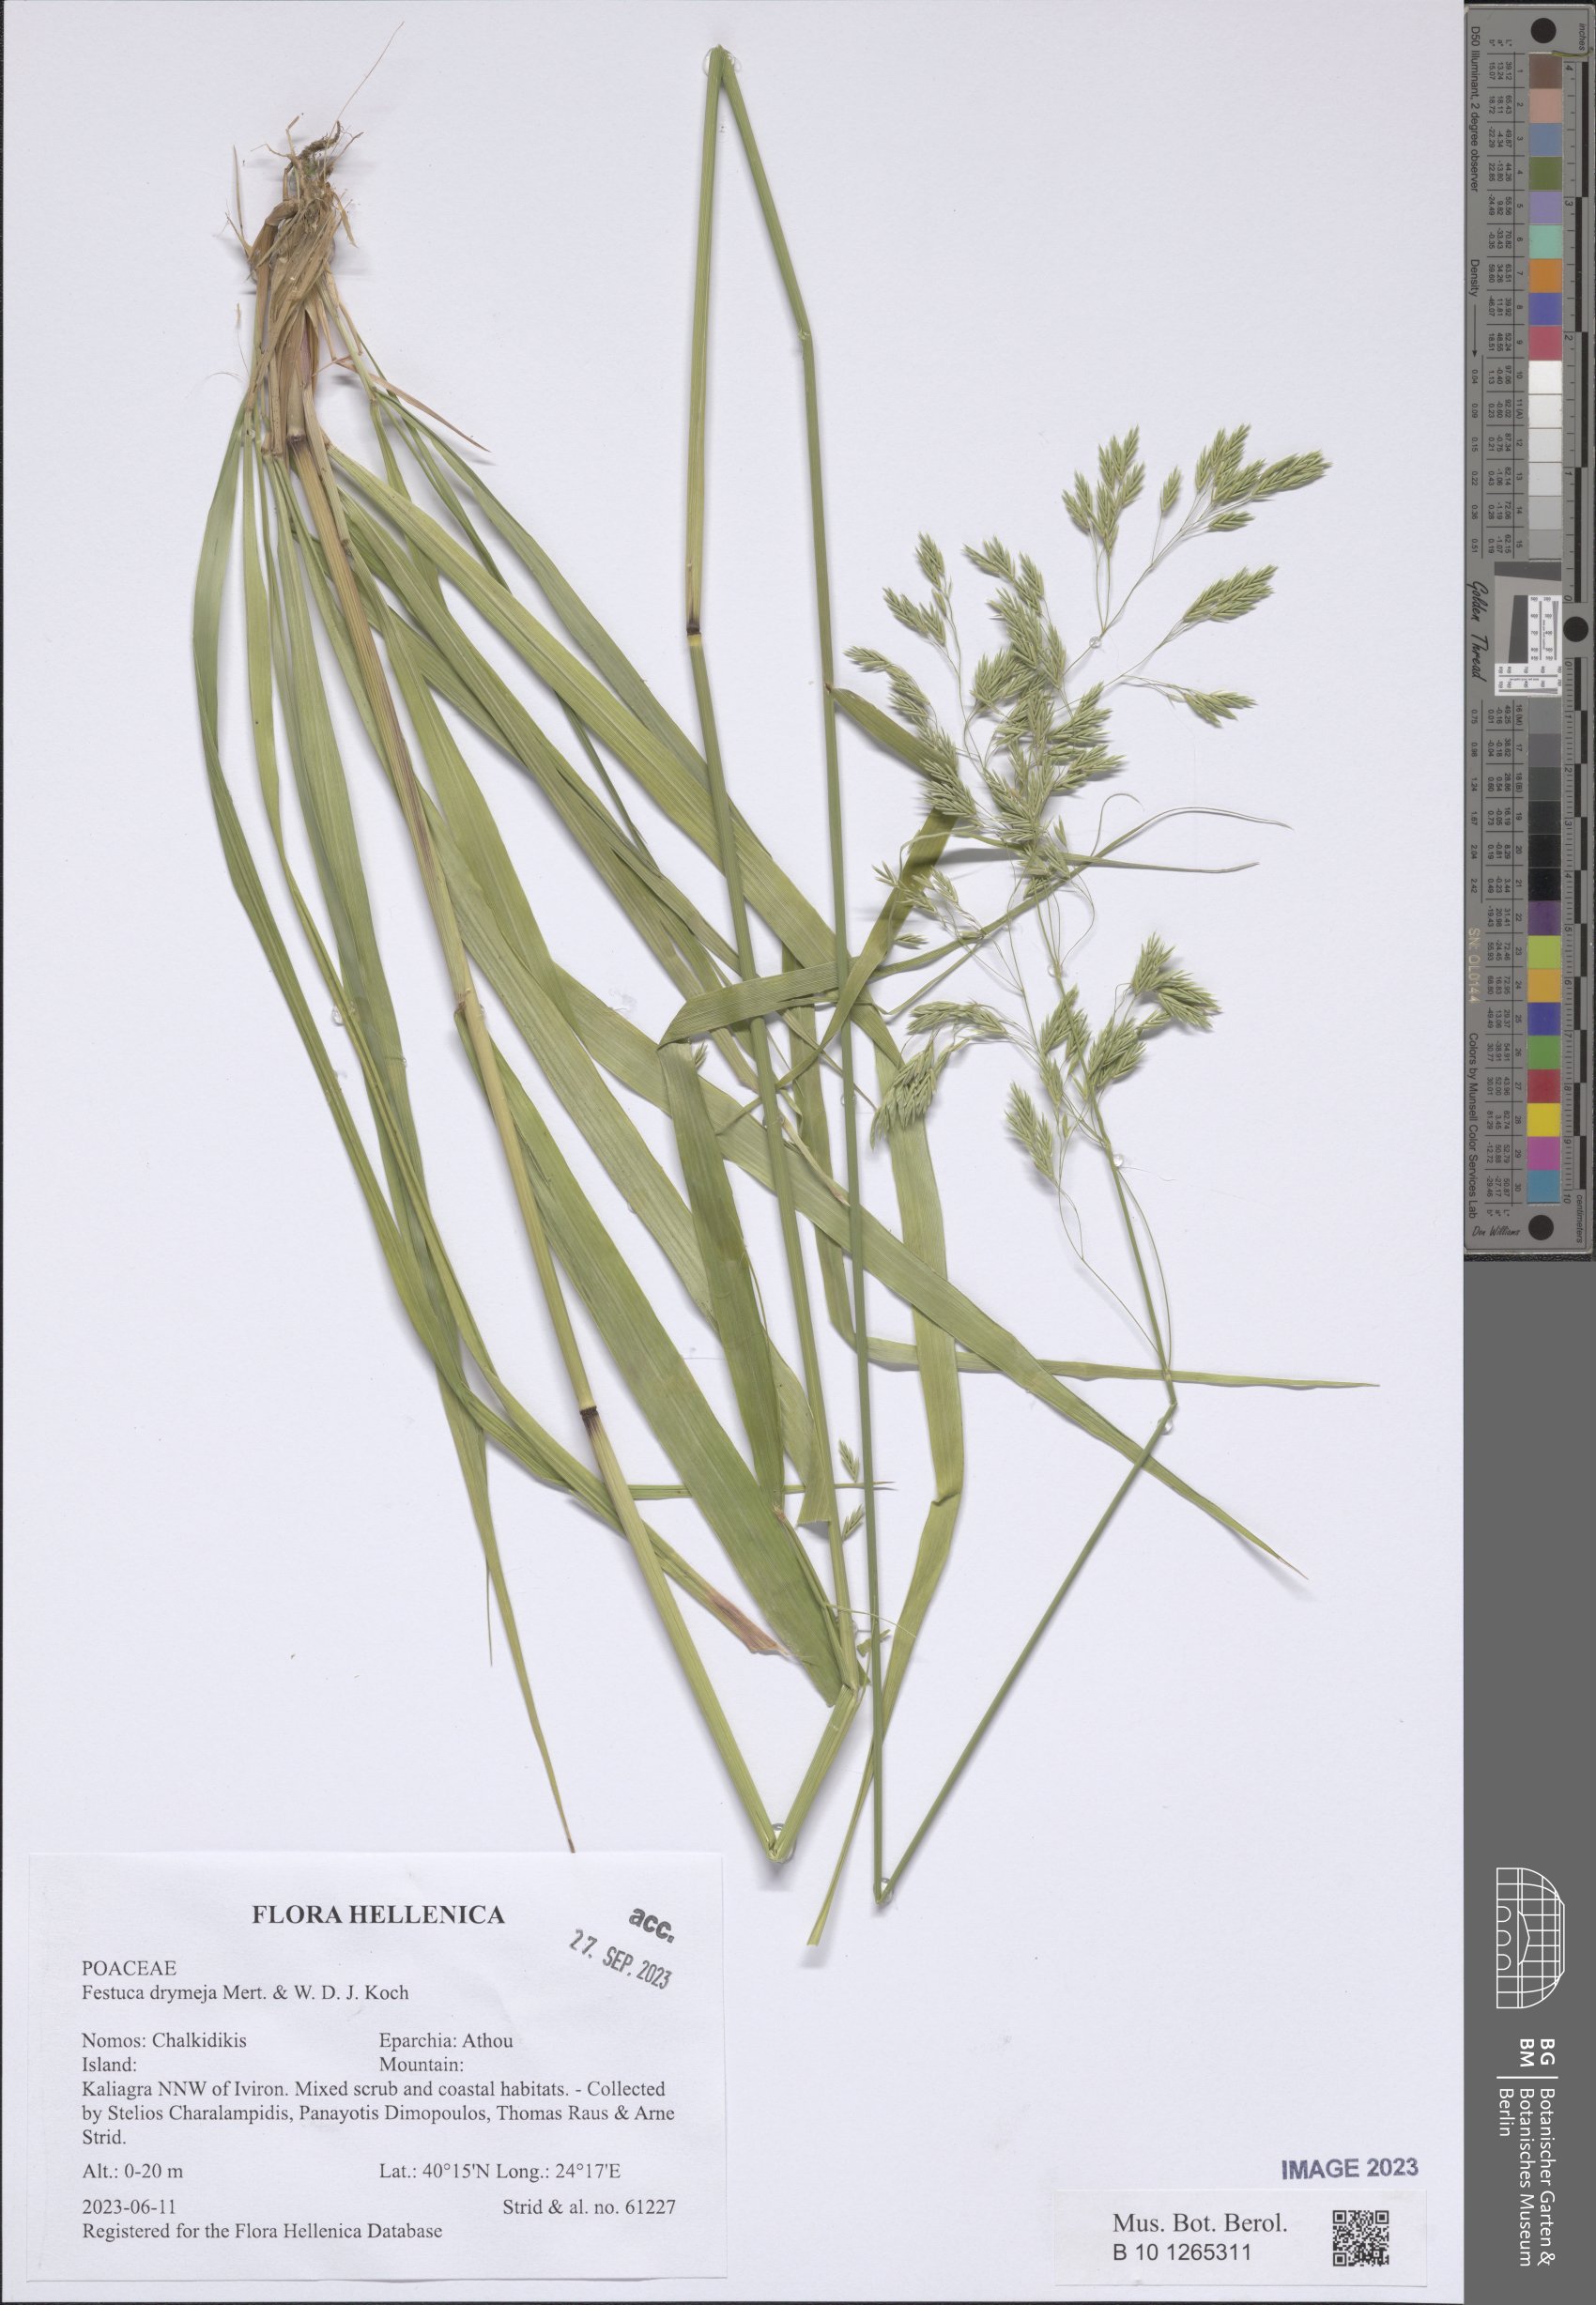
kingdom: Plantae
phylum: Tracheophyta
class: Liliopsida
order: Poales
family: Poaceae
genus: Festuca
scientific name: Festuca drymeja
